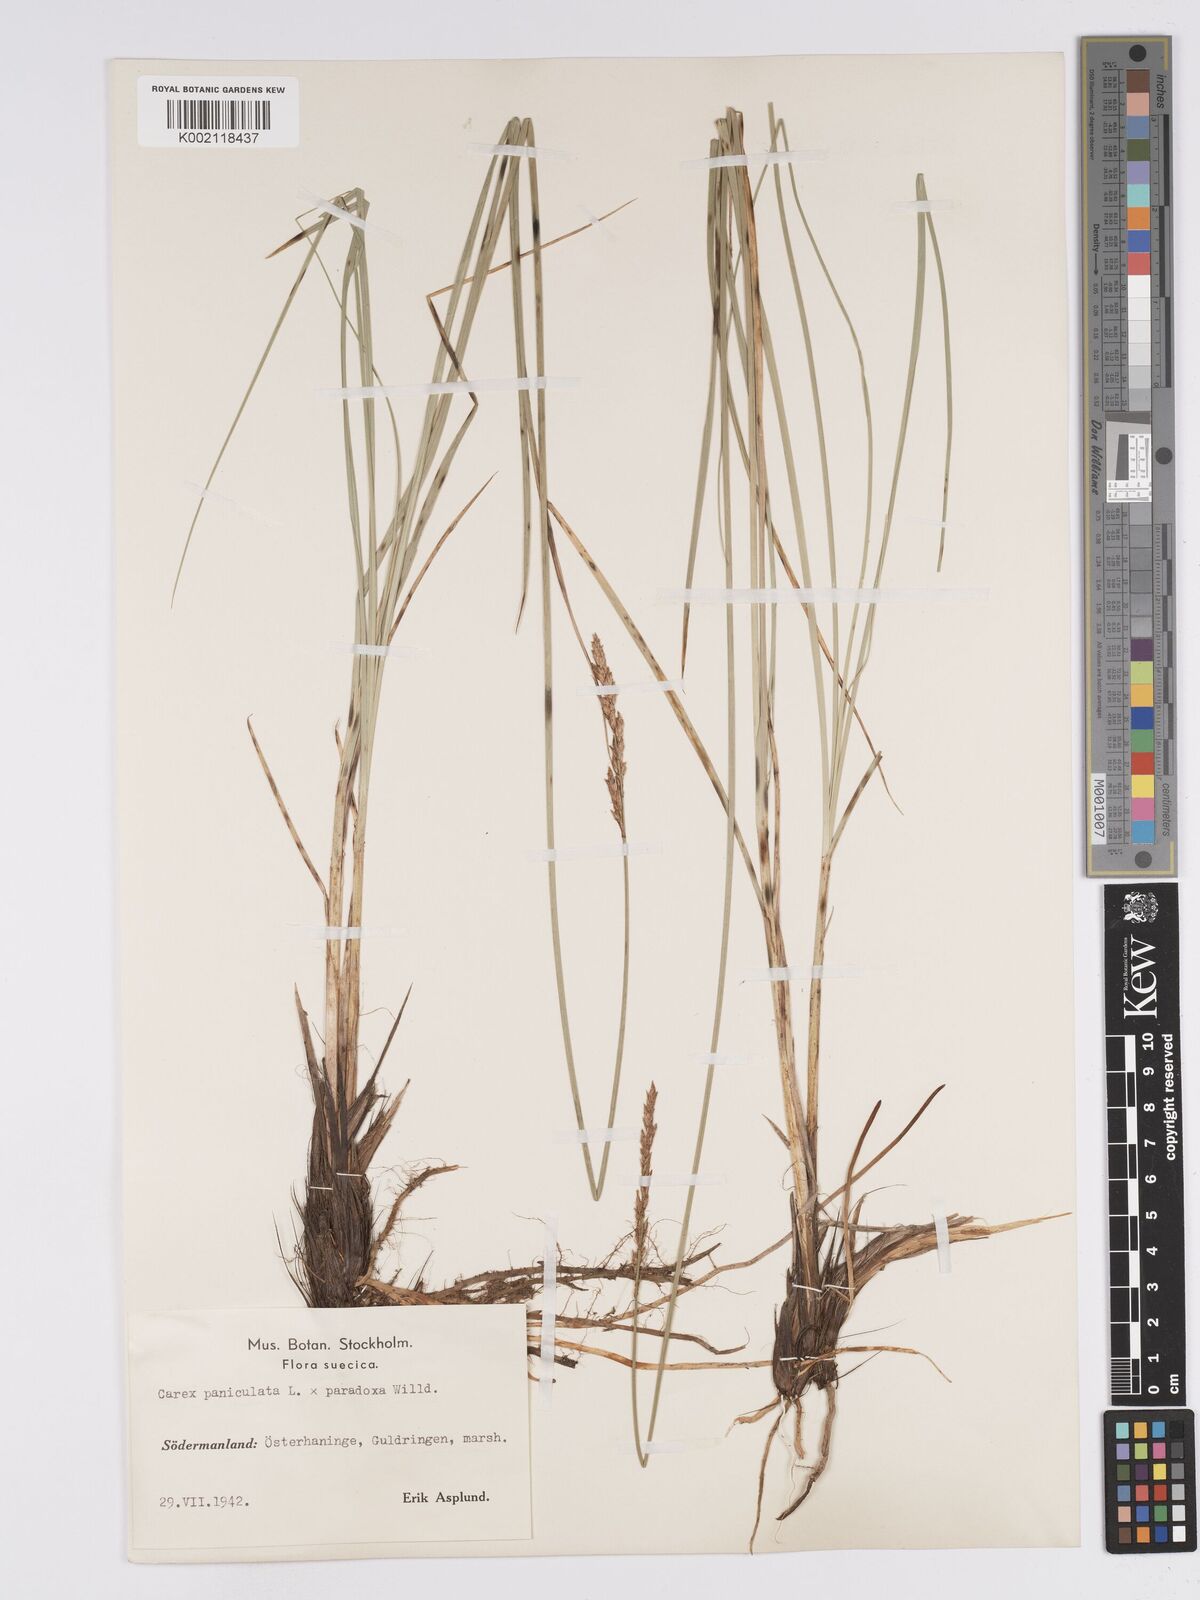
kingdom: Plantae
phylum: Tracheophyta
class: Liliopsida
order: Poales
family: Cyperaceae
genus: Carex
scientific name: Carex rotae
